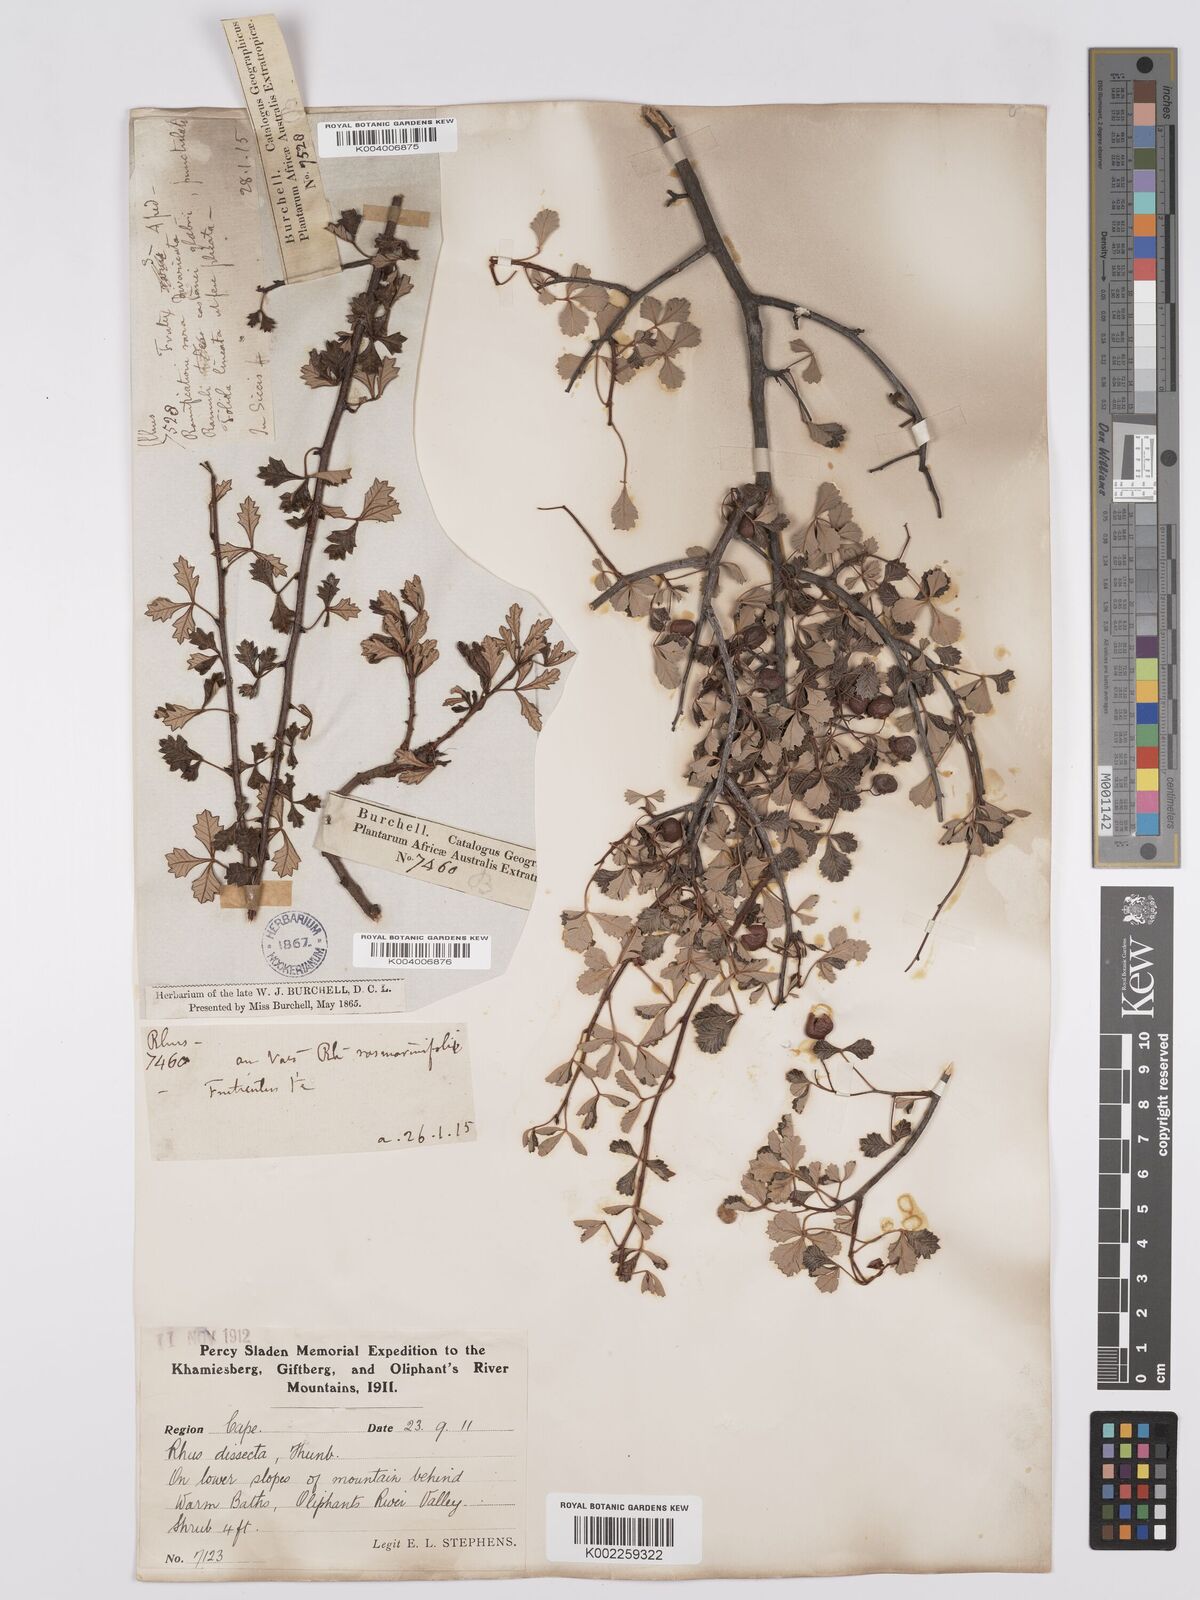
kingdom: Plantae
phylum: Tracheophyta
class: Magnoliopsida
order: Sapindales
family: Anacardiaceae
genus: Searsia
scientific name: Searsia dissecta
